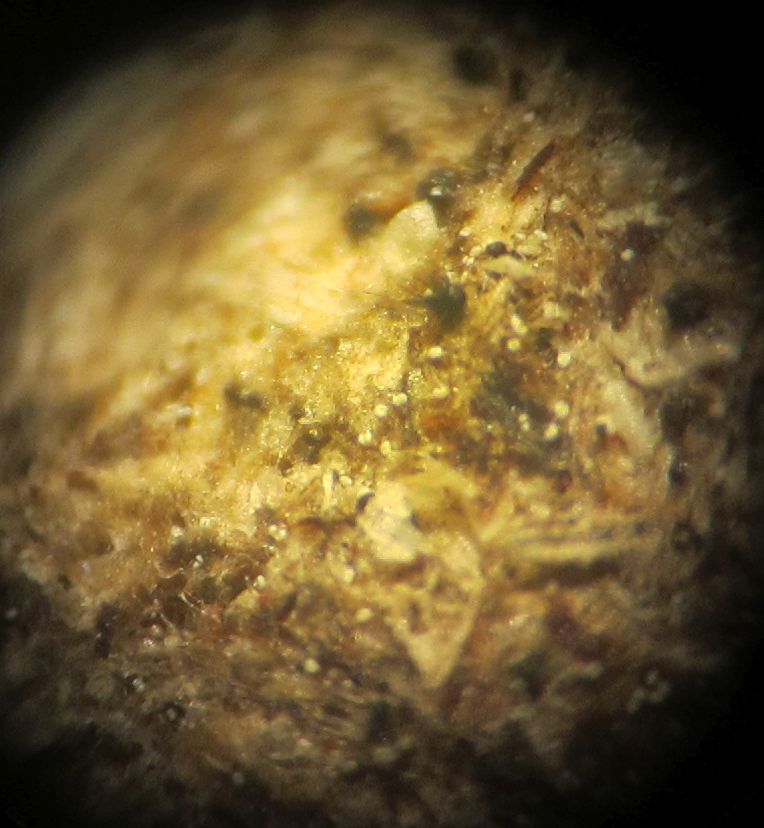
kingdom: Fungi
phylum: Ascomycota
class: Sordariomycetes
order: Sordariales
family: Podosporaceae
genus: Podospora
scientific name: Podospora
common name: kernesvamp
